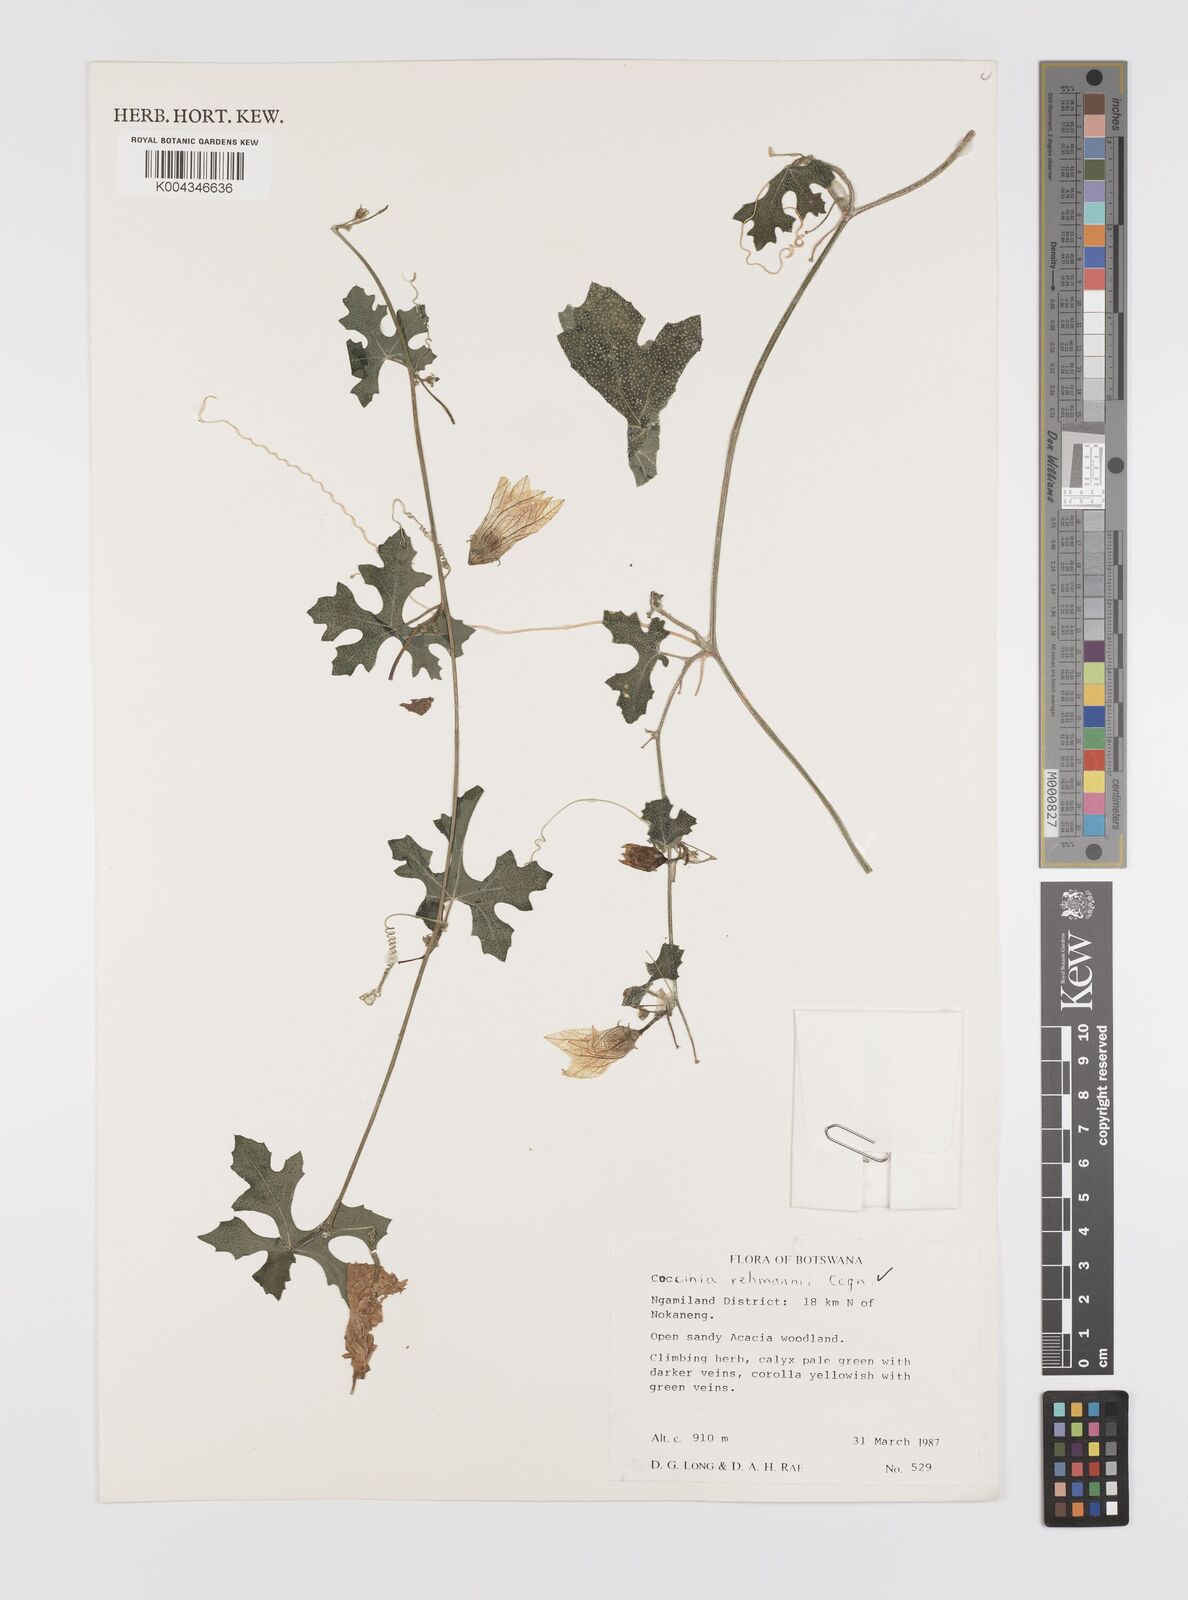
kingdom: Plantae
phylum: Tracheophyta
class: Magnoliopsida
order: Cucurbitales
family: Cucurbitaceae
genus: Coccinia
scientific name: Coccinia rehmannii
